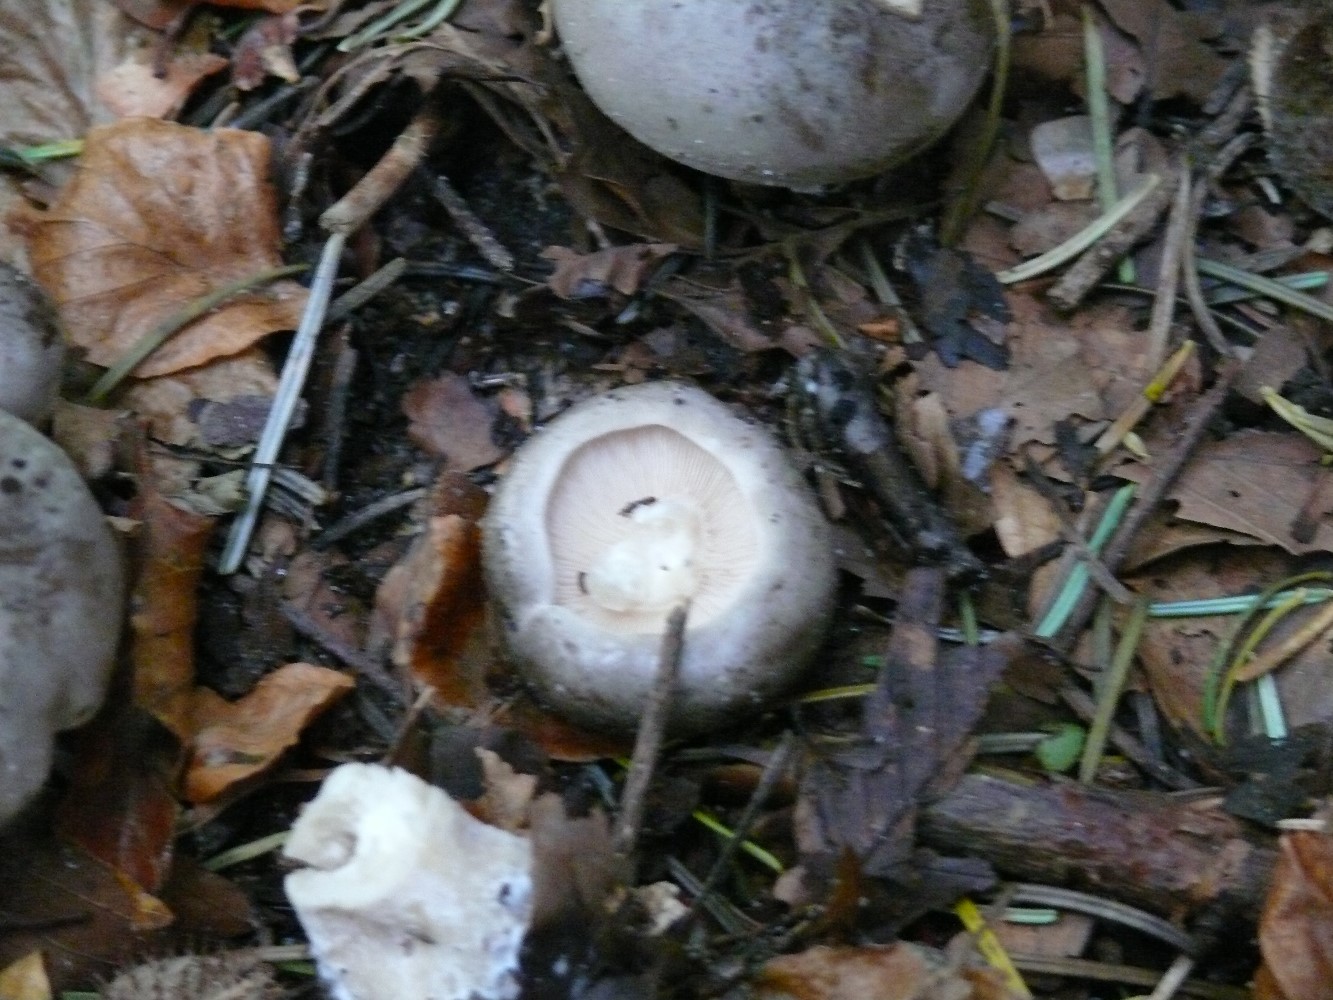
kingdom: Fungi
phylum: Basidiomycota
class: Agaricomycetes
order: Agaricales
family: Tricholomataceae
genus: Clitocybe
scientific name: Clitocybe nebularis
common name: tåge-tragthat
